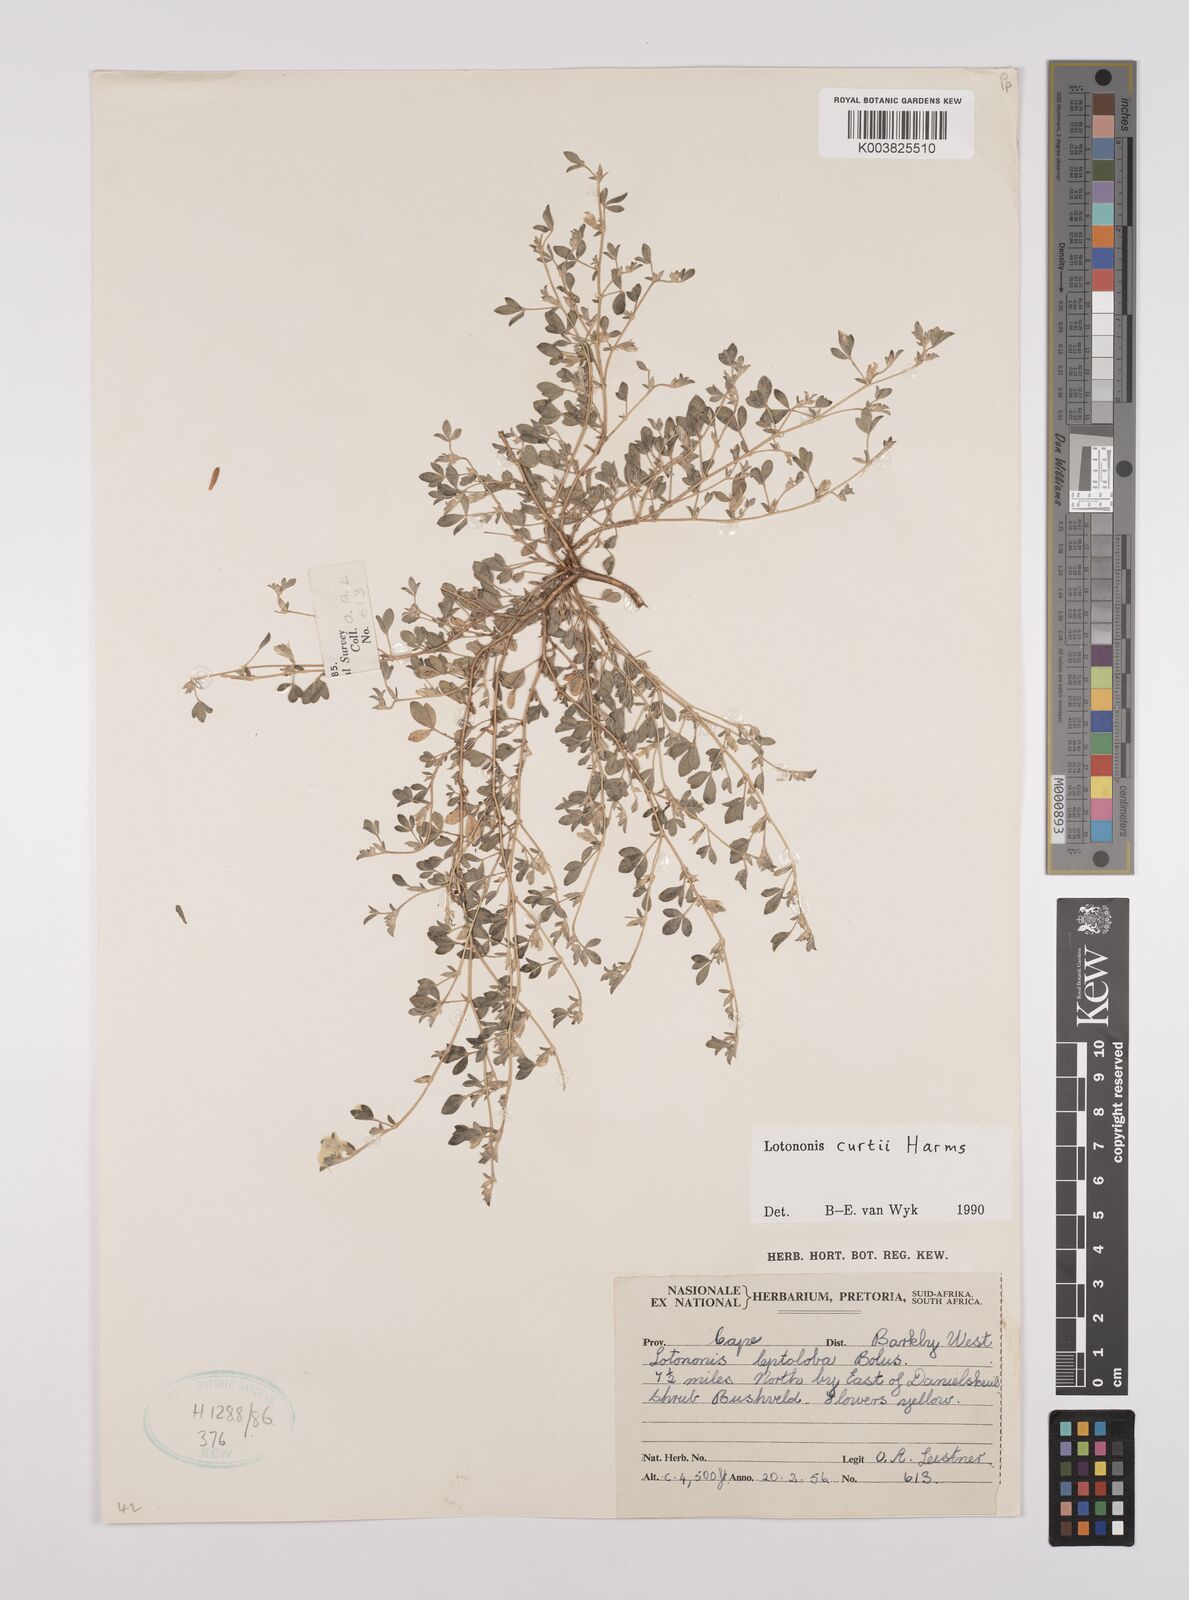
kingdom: Plantae
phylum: Tracheophyta
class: Magnoliopsida
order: Fabales
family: Fabaceae
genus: Lotononis
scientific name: Lotononis curtii
